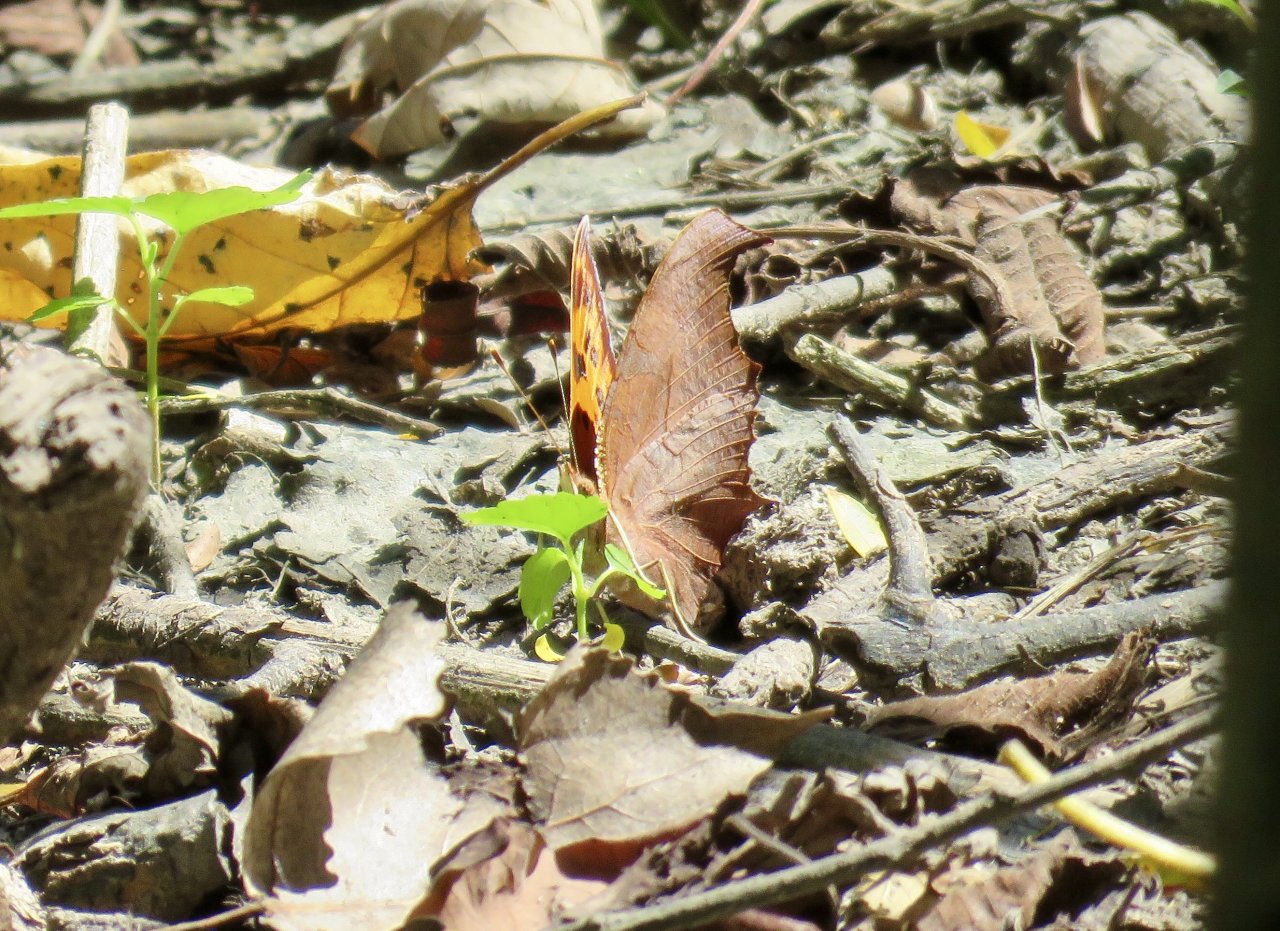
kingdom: Animalia
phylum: Arthropoda
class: Insecta
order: Lepidoptera
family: Nymphalidae
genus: Polygonia
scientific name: Polygonia interrogationis
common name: Question Mark
